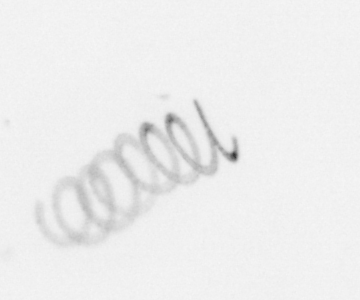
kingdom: Chromista
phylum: Ochrophyta
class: Bacillariophyceae
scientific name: Bacillariophyceae
